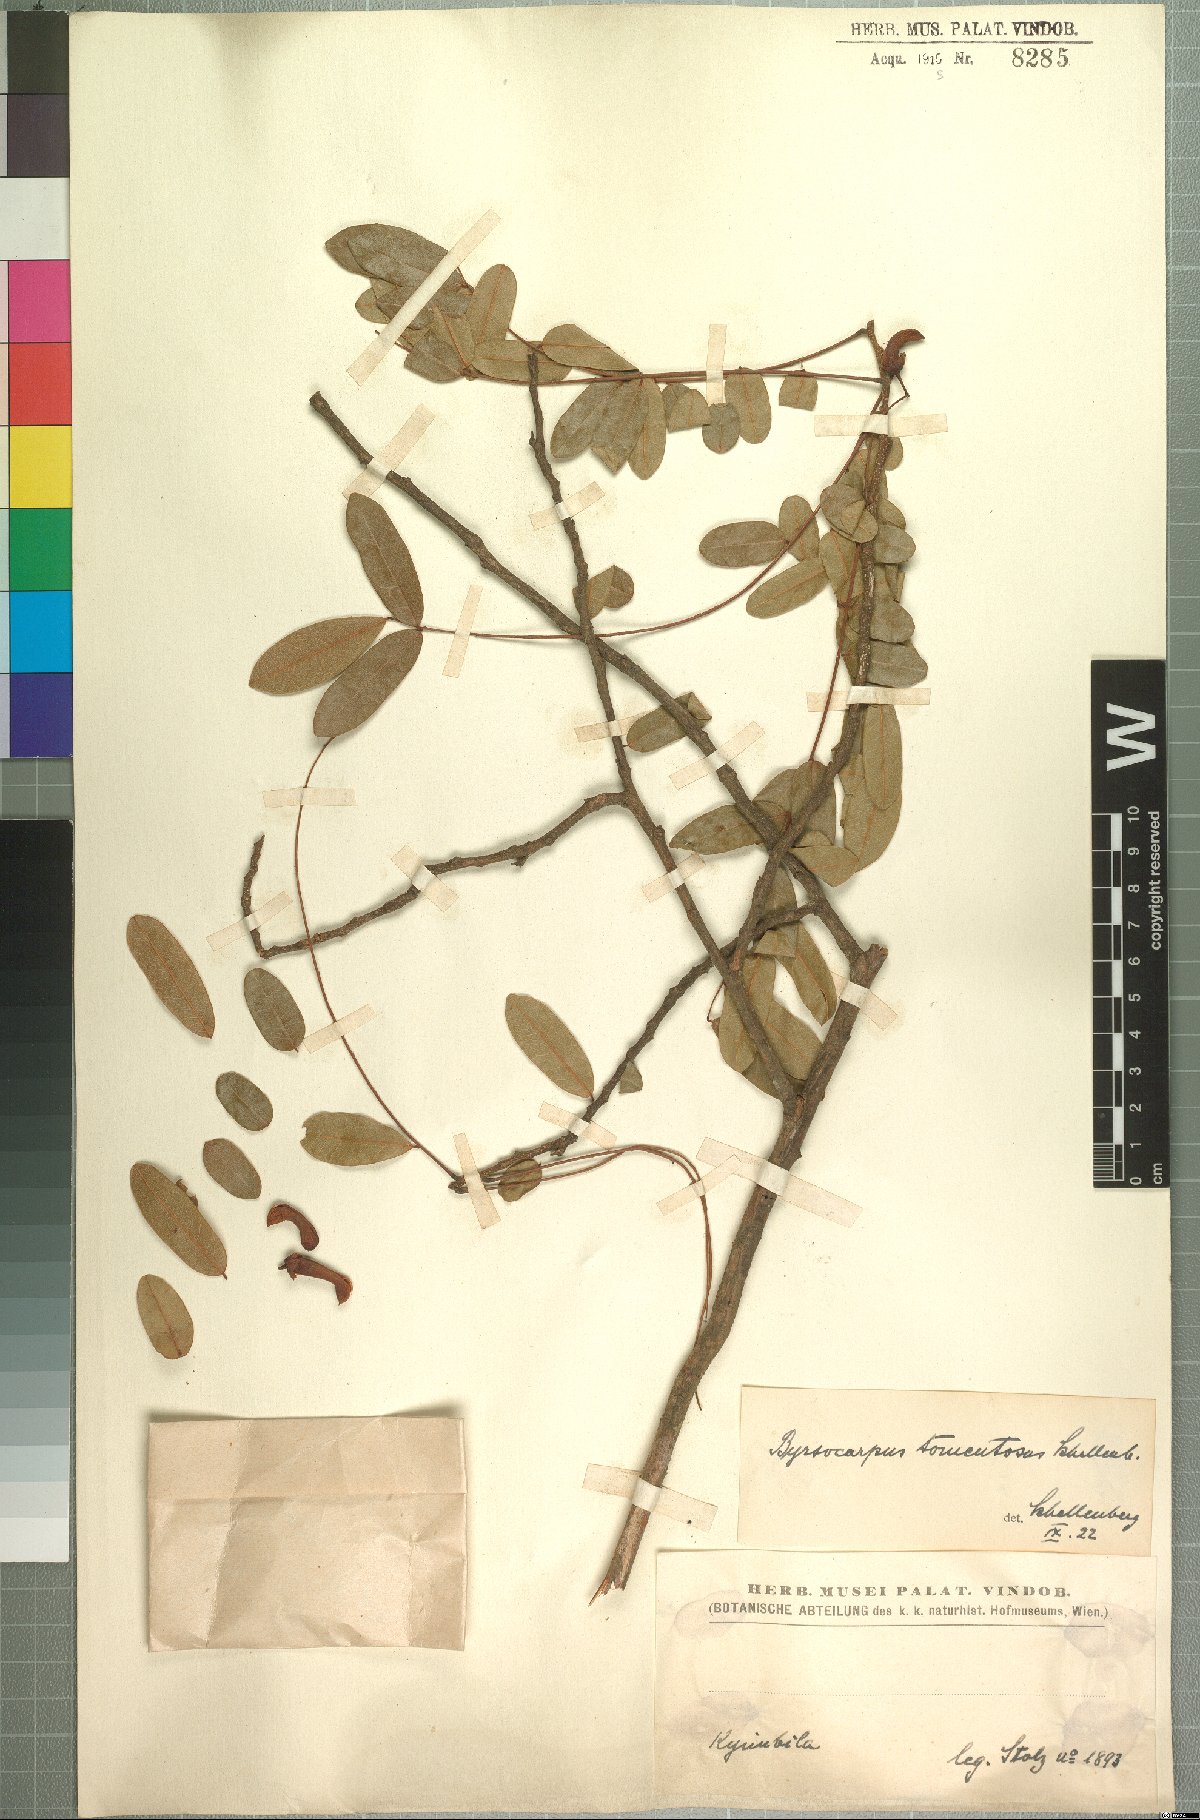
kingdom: Plantae
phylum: Tracheophyta
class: Magnoliopsida
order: Oxalidales
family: Connaraceae
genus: Rourea
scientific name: Rourea orientalis
